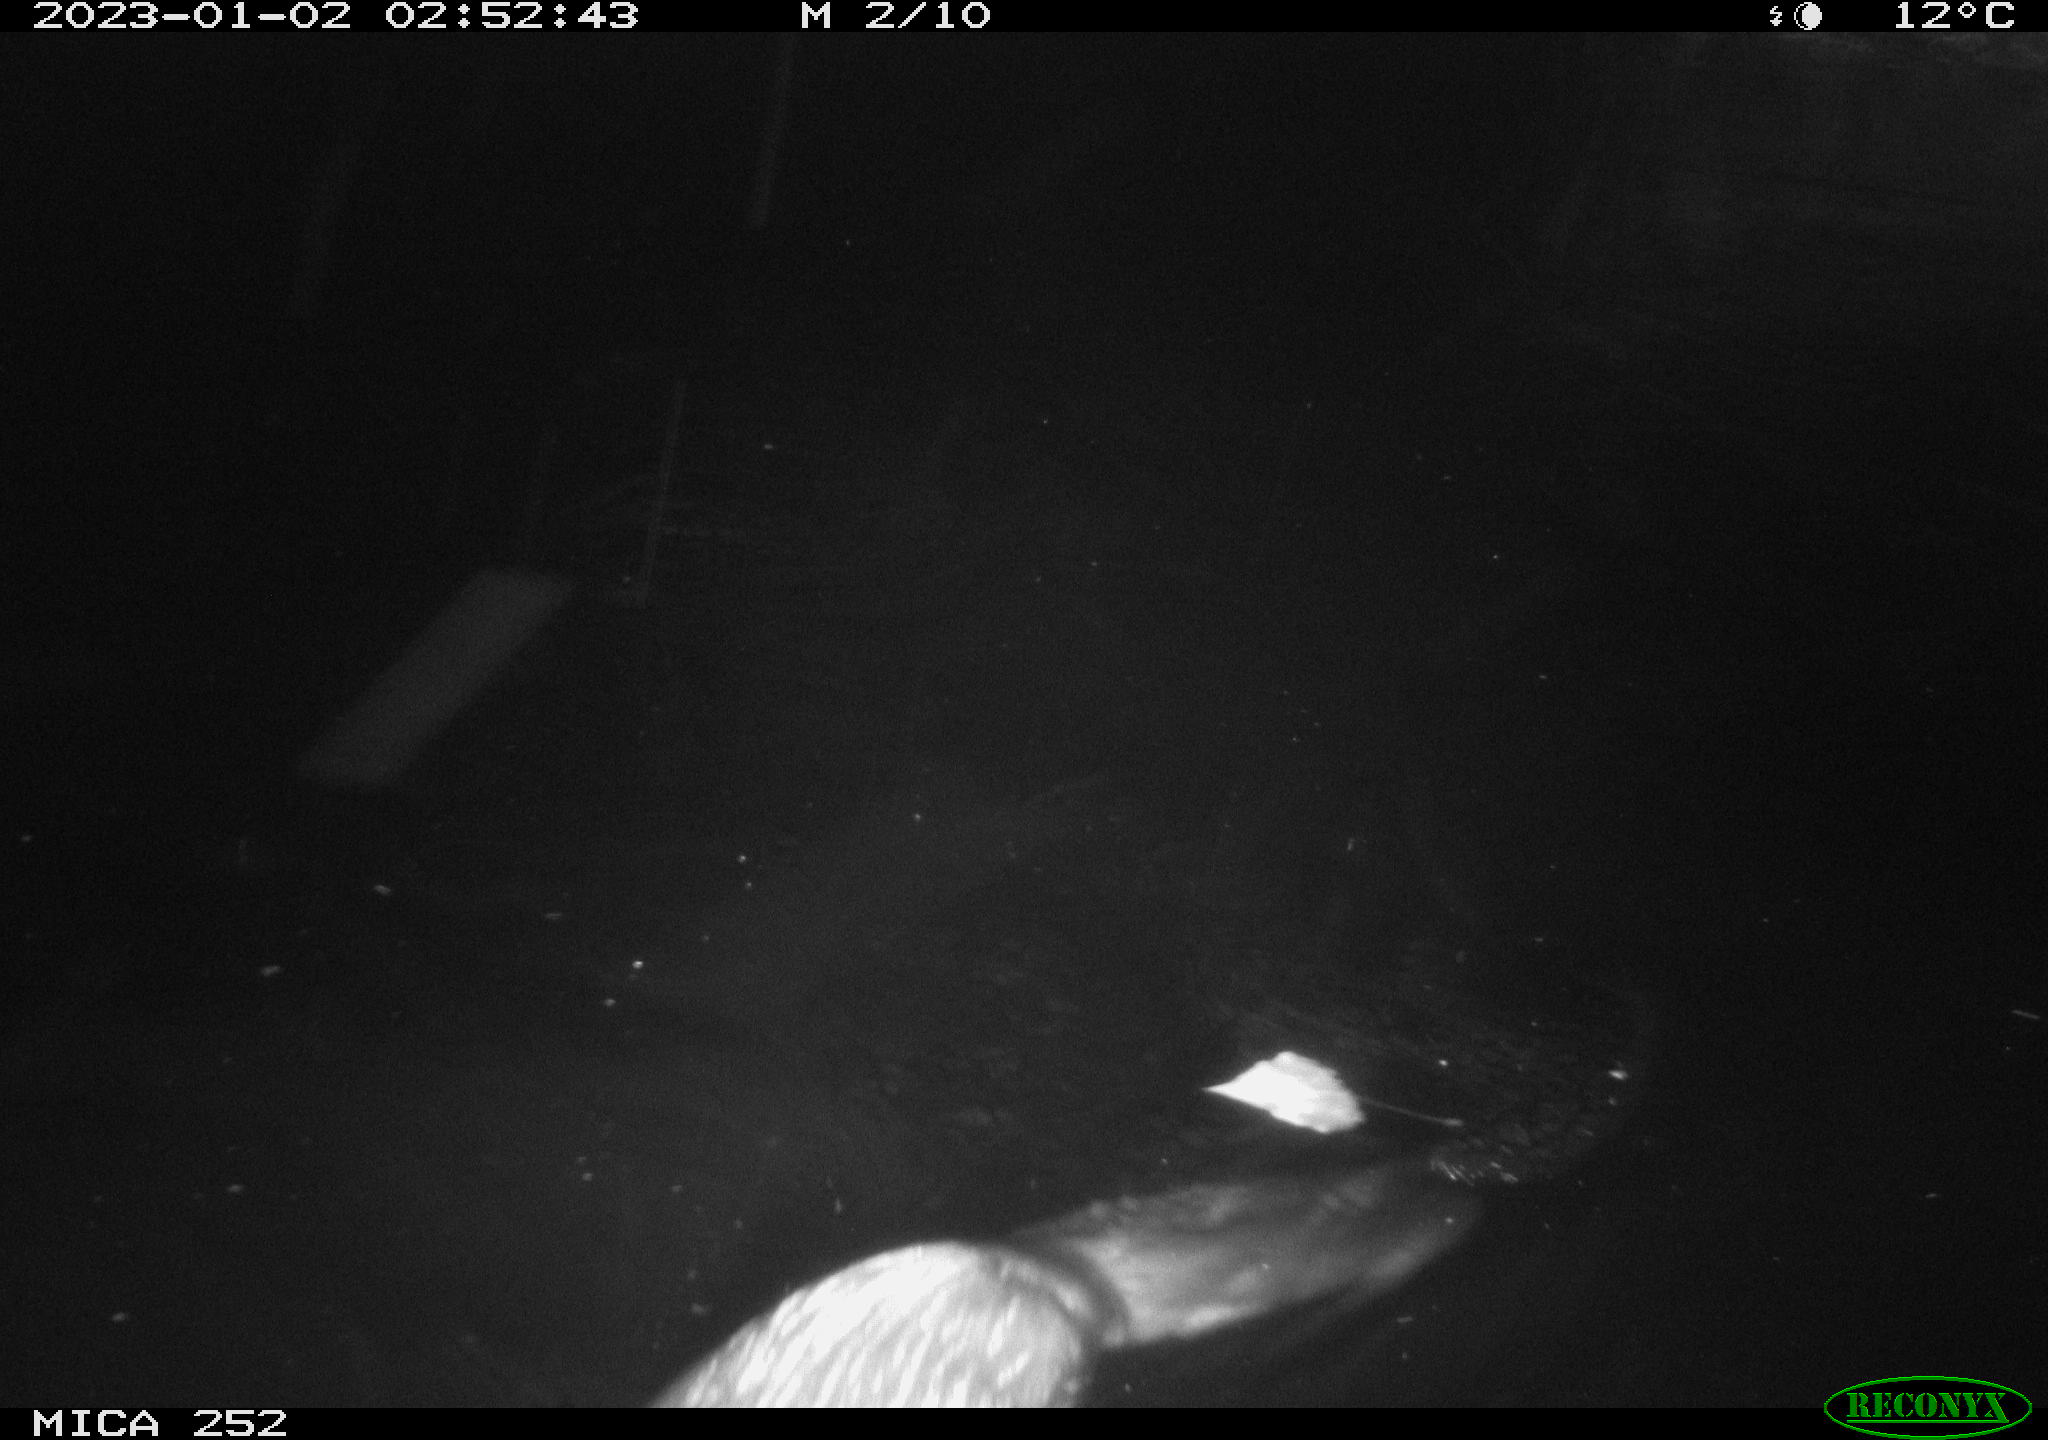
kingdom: Animalia
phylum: Chordata
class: Mammalia
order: Rodentia
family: Castoridae
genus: Castor
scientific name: Castor fiber
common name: Eurasian beaver
